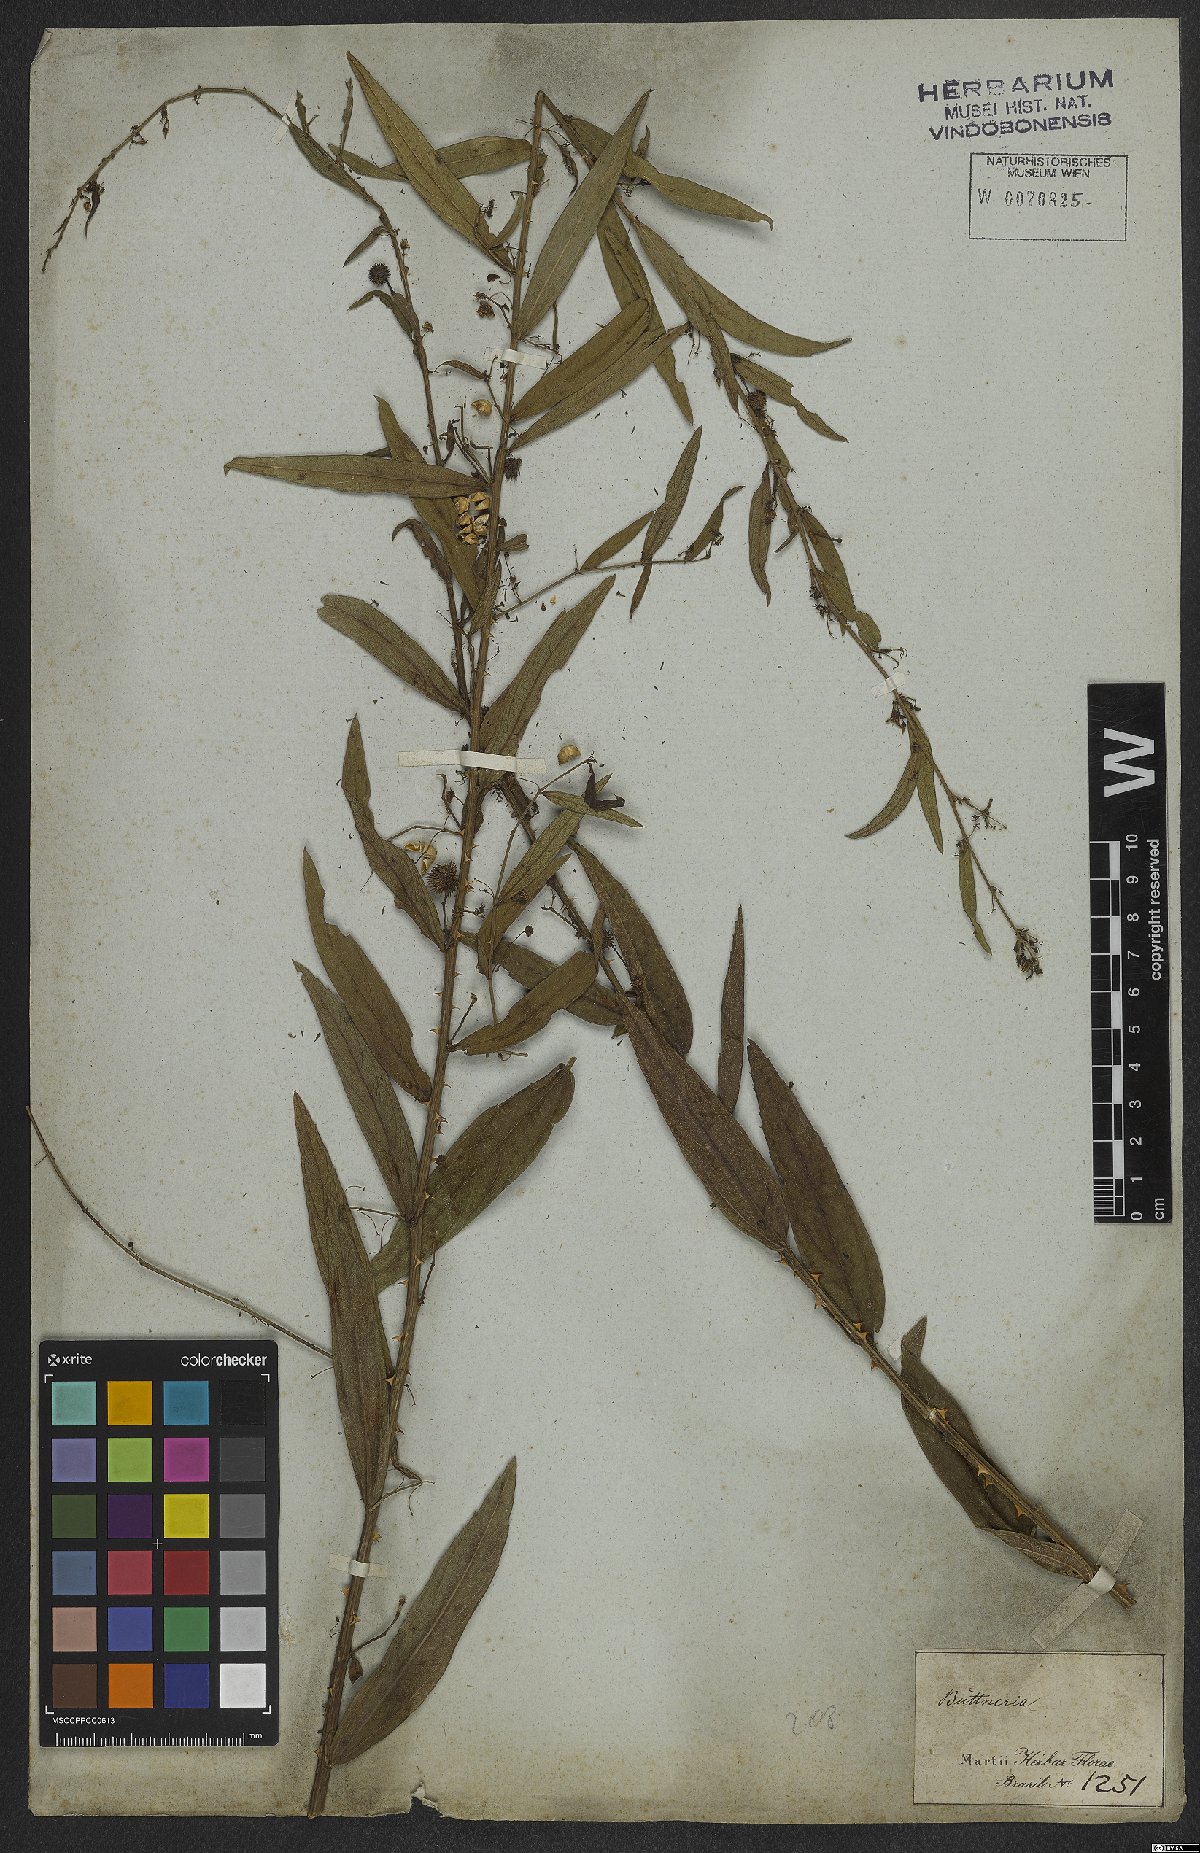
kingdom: Plantae
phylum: Tracheophyta
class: Magnoliopsida
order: Malvales
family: Malvaceae
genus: Byttneria
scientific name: Byttneria scabra
